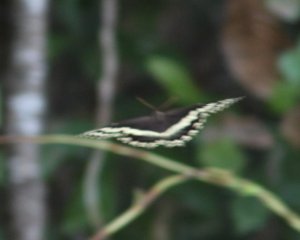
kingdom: Animalia
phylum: Arthropoda
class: Insecta
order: Lepidoptera
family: Papilionidae
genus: Pterourus
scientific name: Pterourus palamedes
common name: Palamedes Swallowtail
